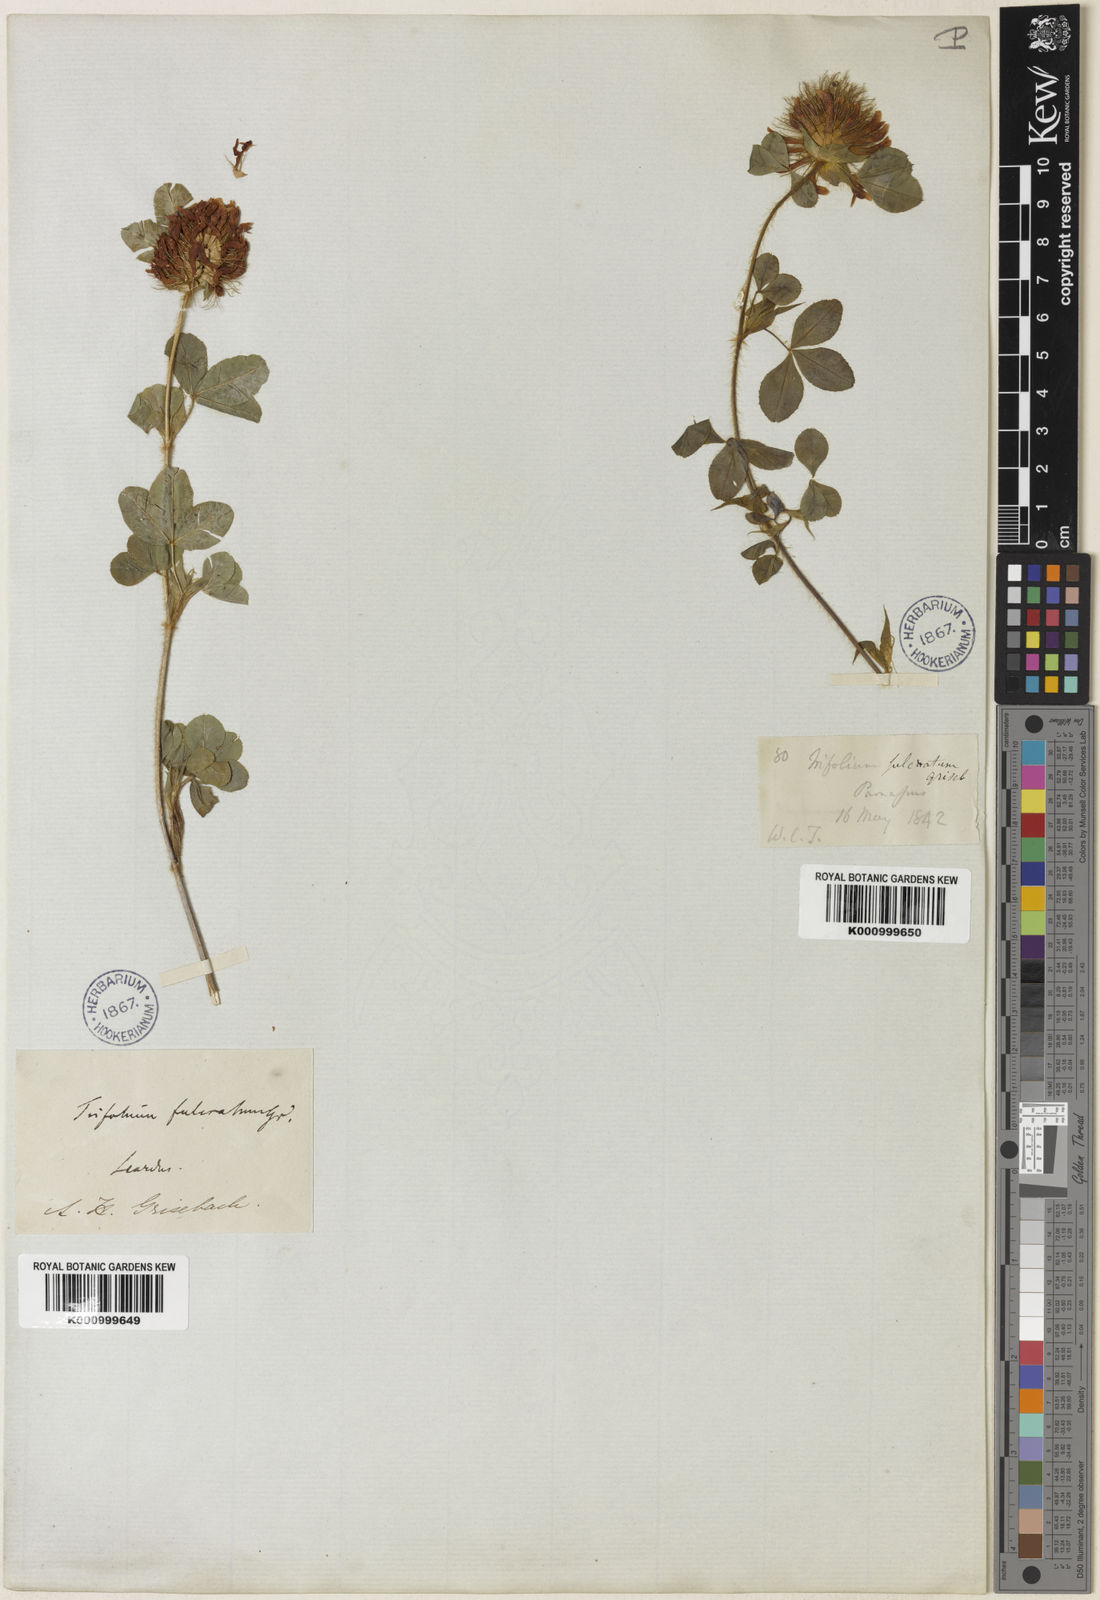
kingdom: Plantae
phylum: Tracheophyta
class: Magnoliopsida
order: Fabales
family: Fabaceae
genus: Trifolium
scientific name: Trifolium pignantii
